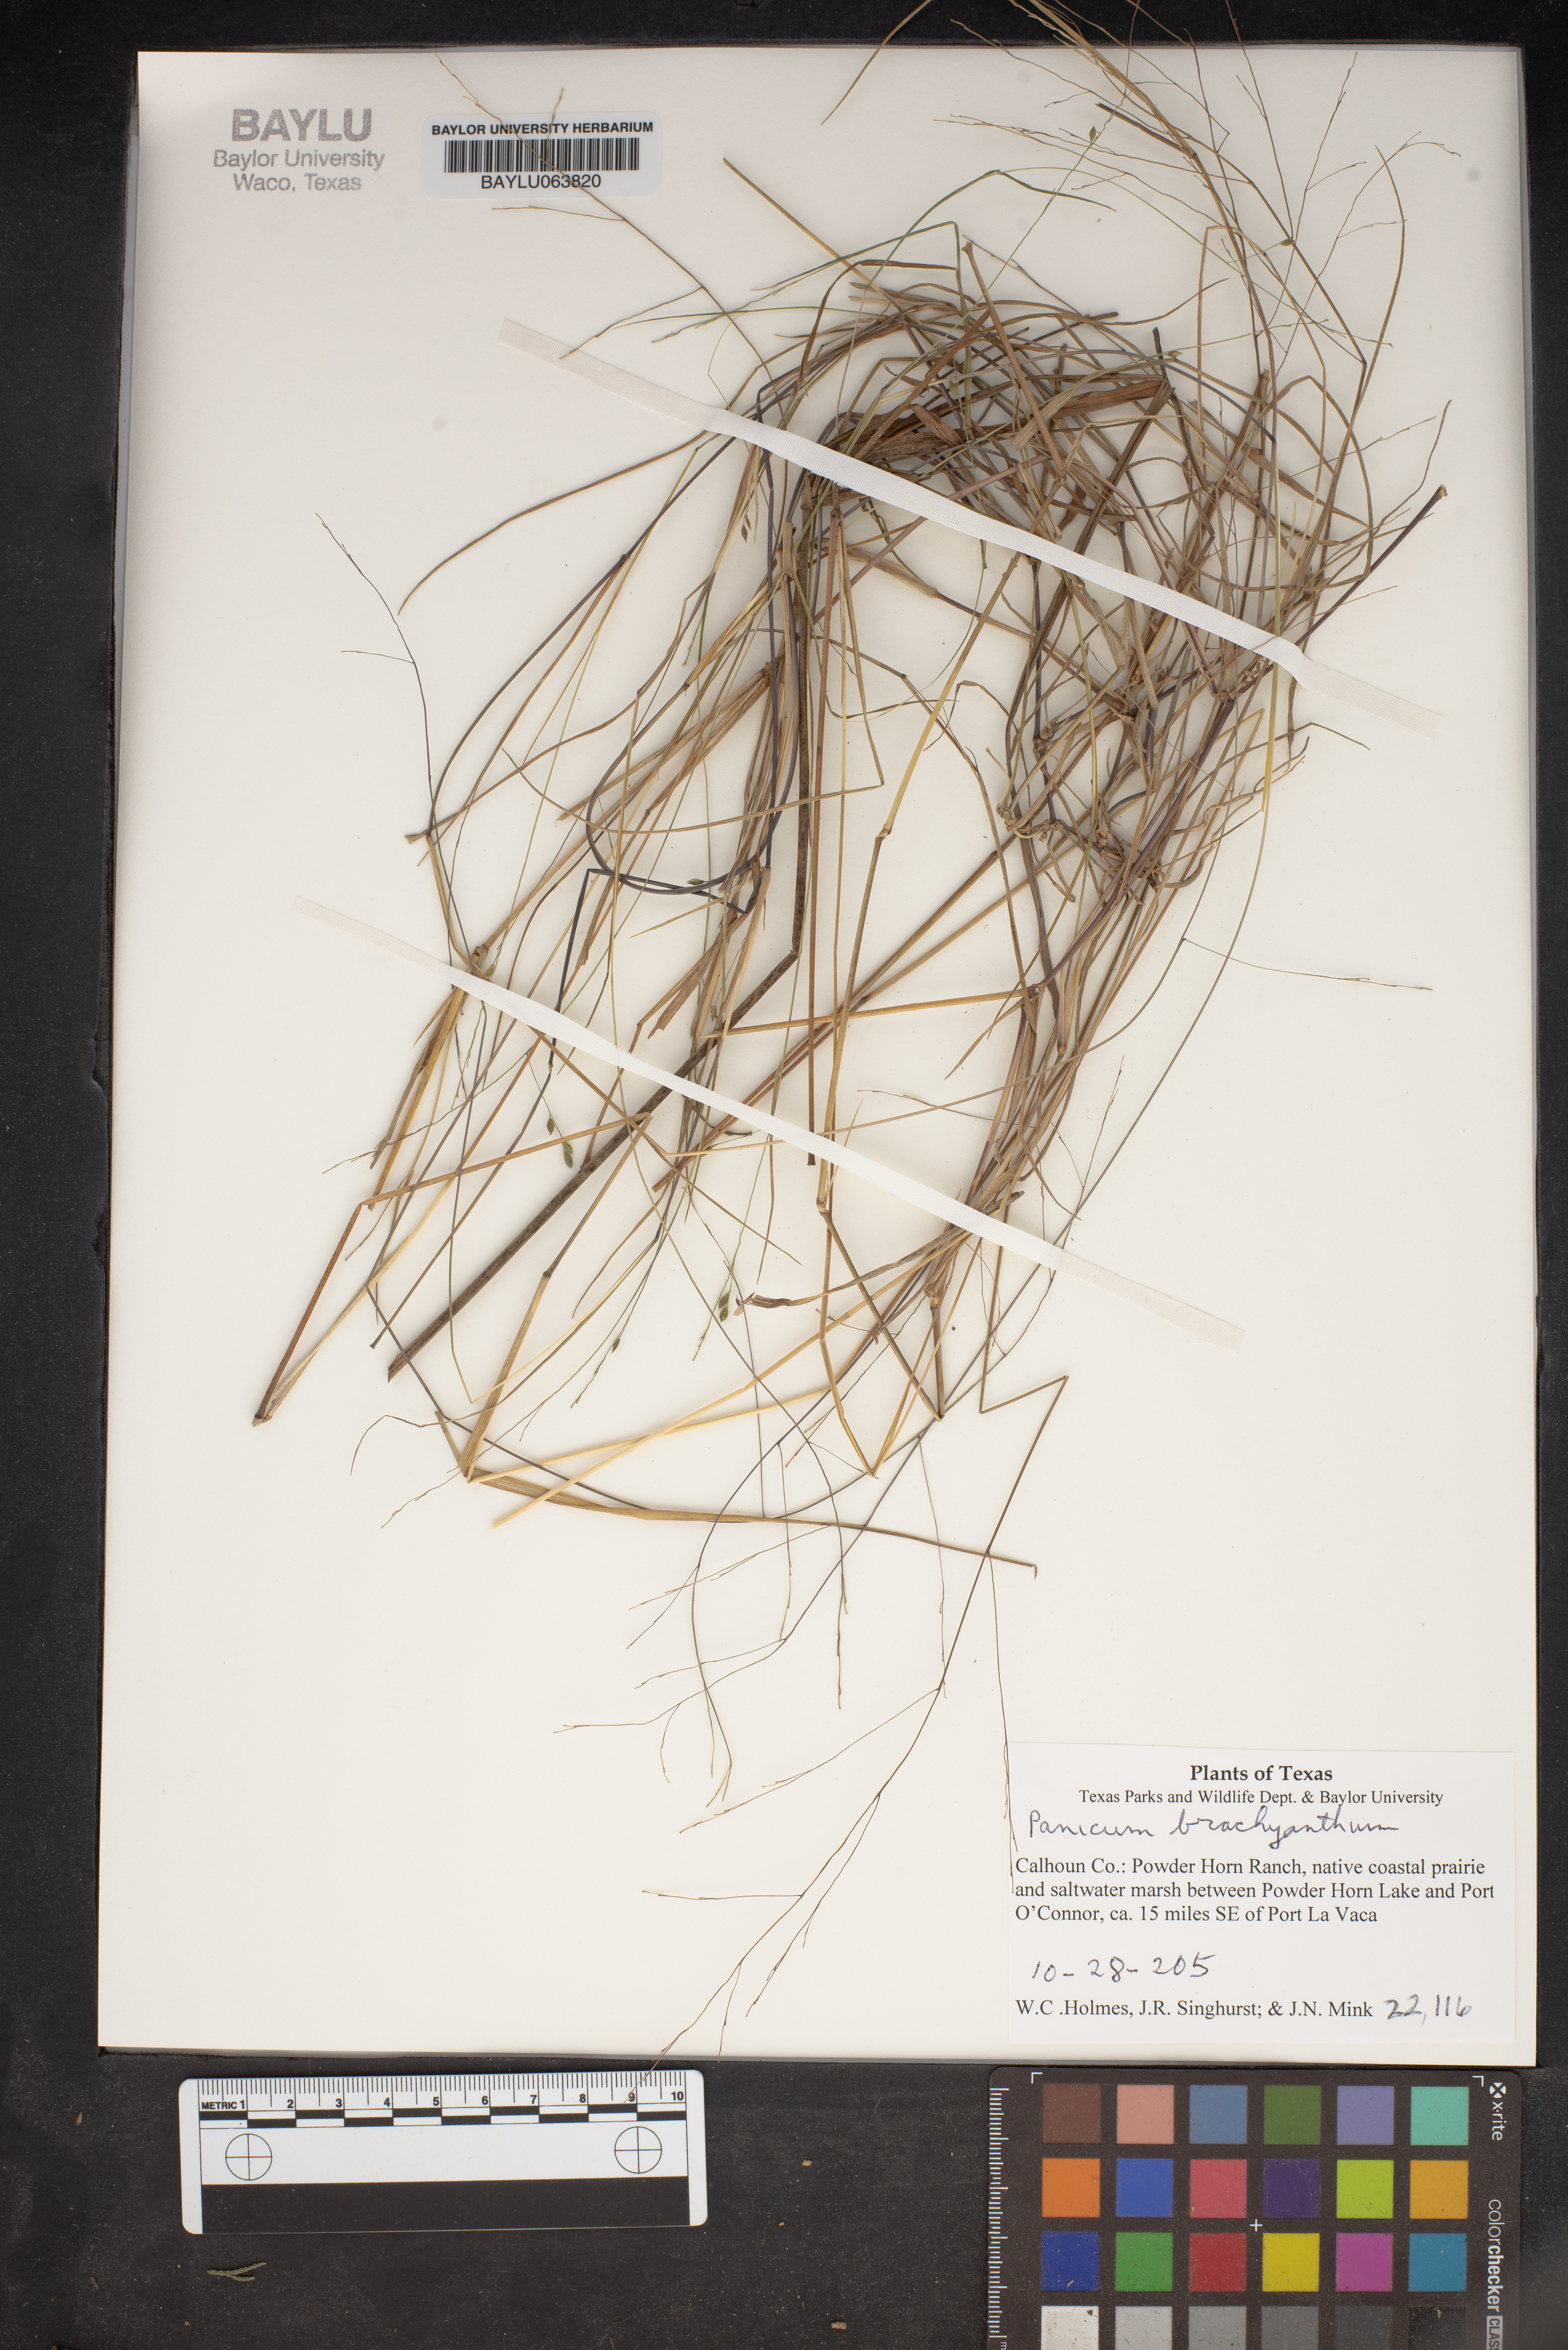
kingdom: Plantae
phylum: Tracheophyta
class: Liliopsida
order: Poales
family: Poaceae
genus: Kellochloa
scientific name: Kellochloa brachyantha
